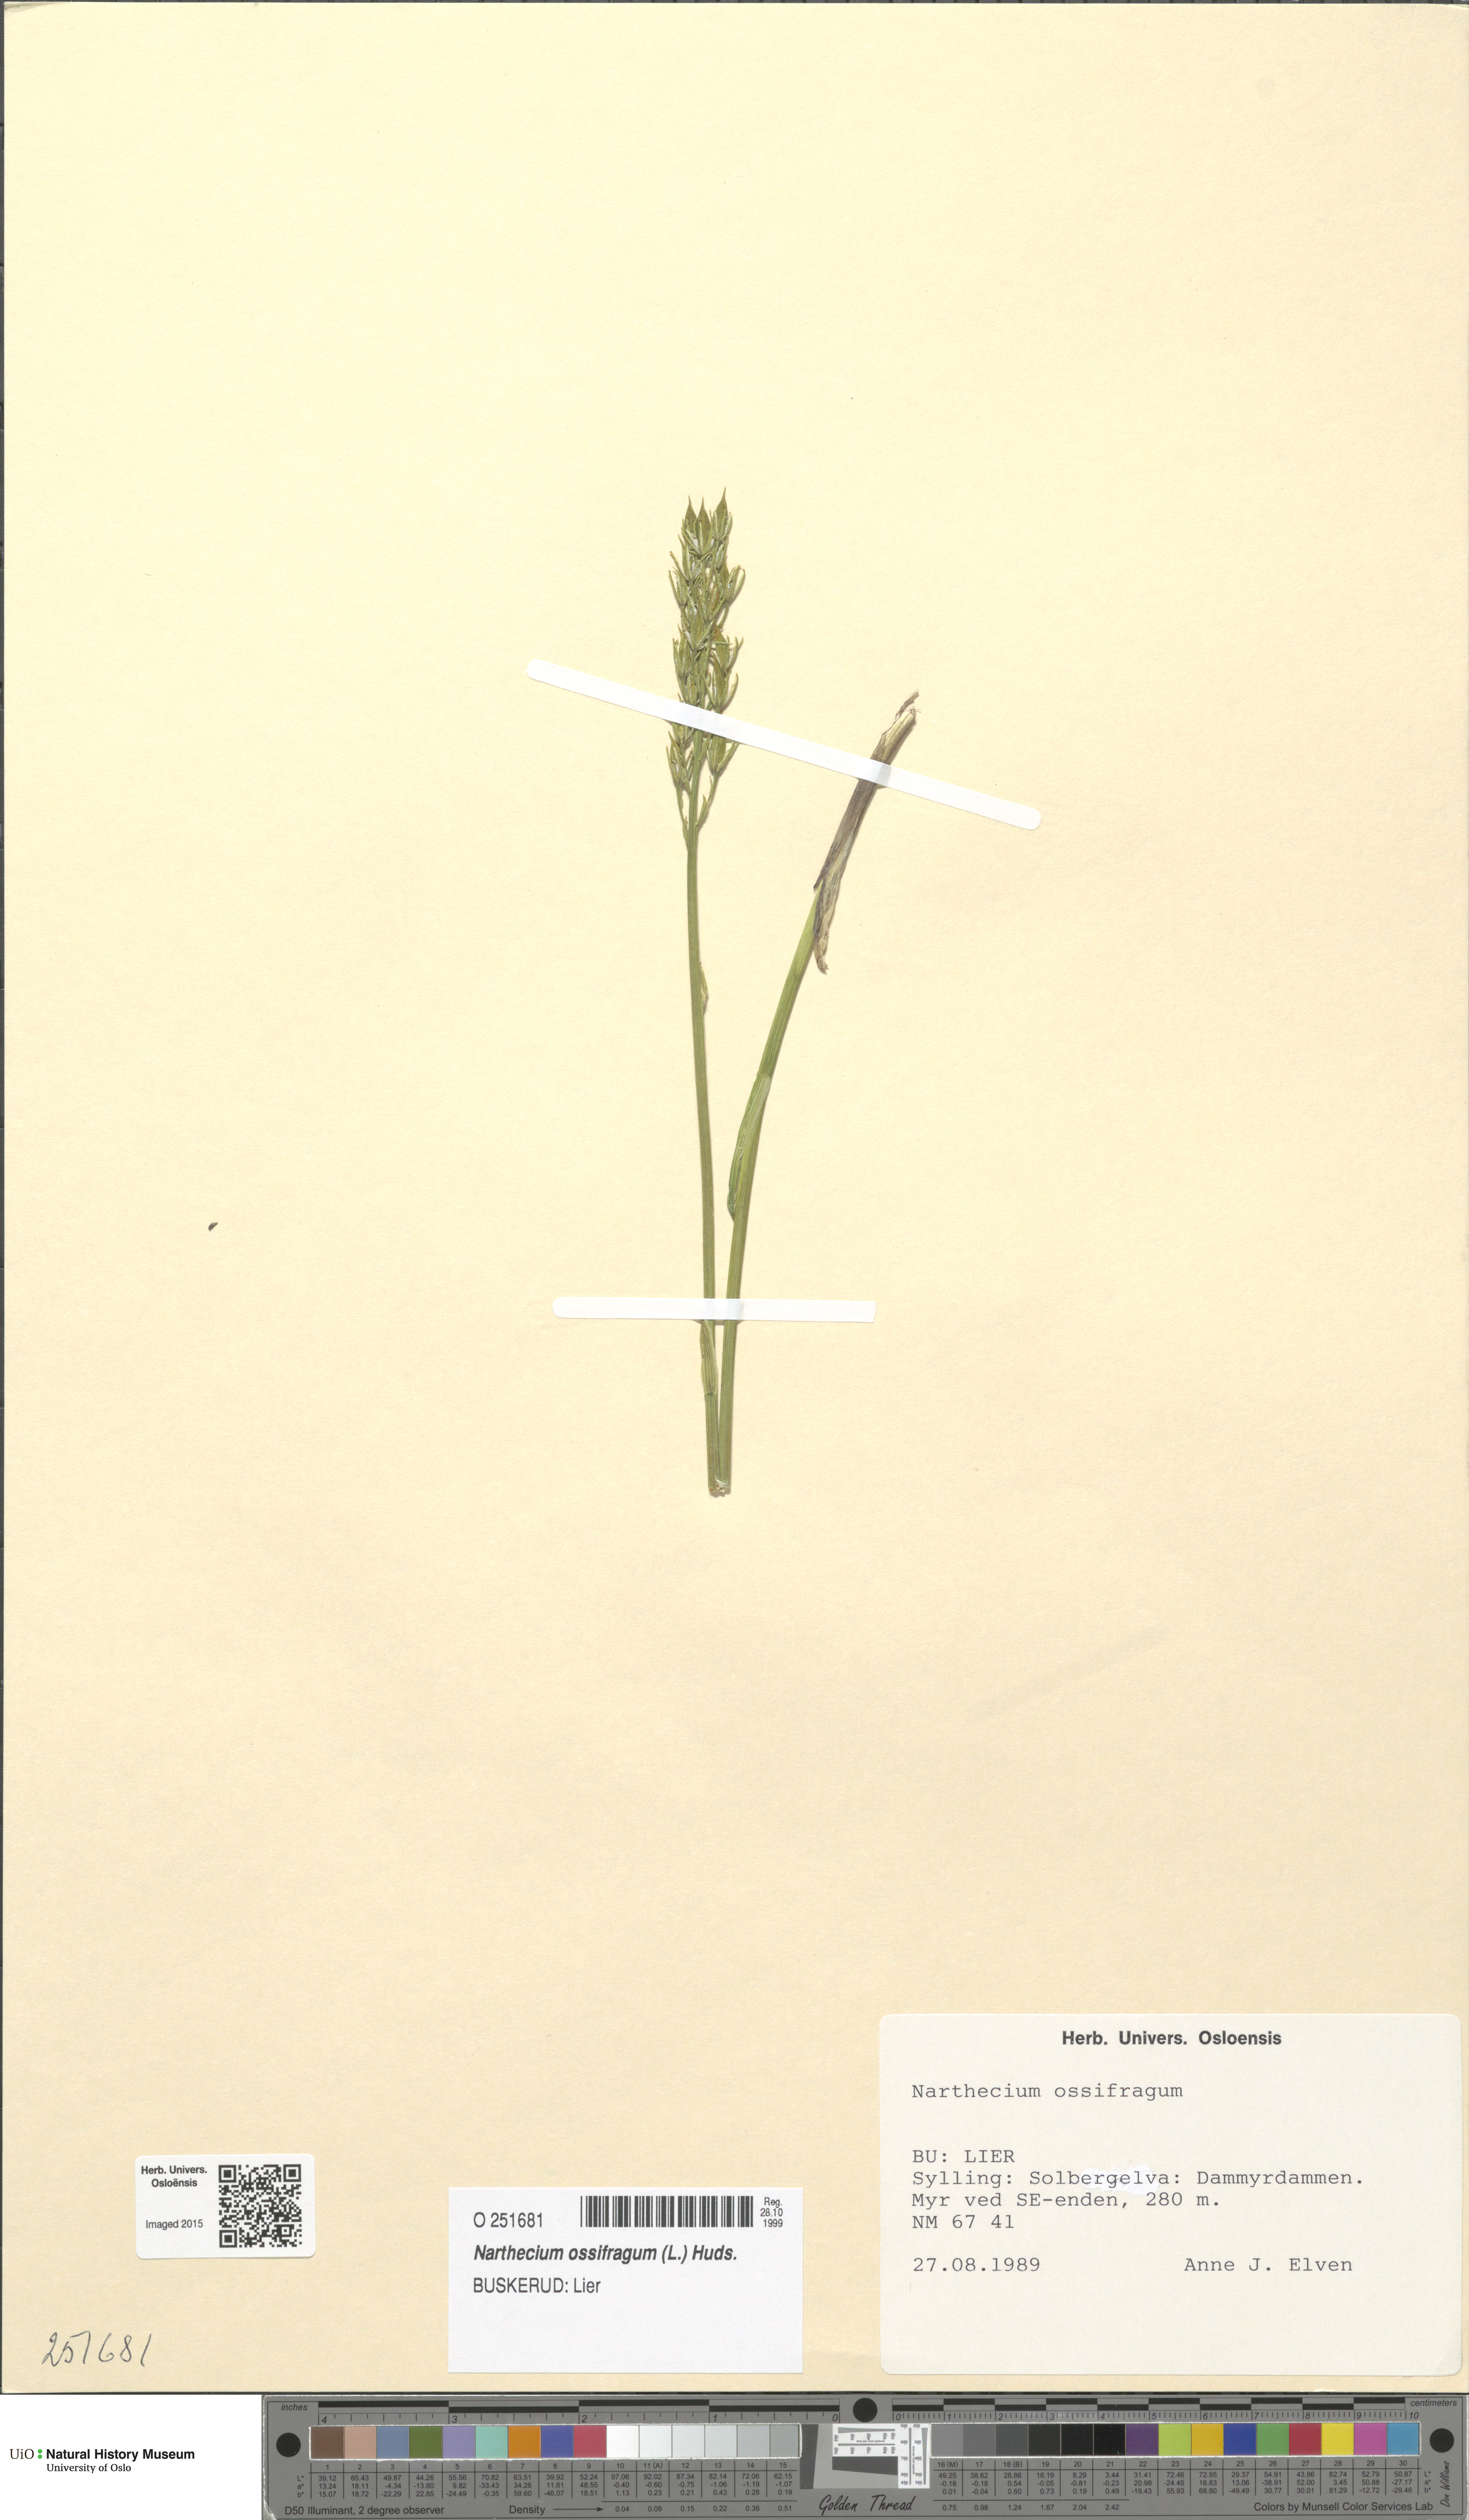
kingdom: Plantae
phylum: Tracheophyta
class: Liliopsida
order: Dioscoreales
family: Nartheciaceae
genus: Narthecium
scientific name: Narthecium ossifragum
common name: Bog asphodel
